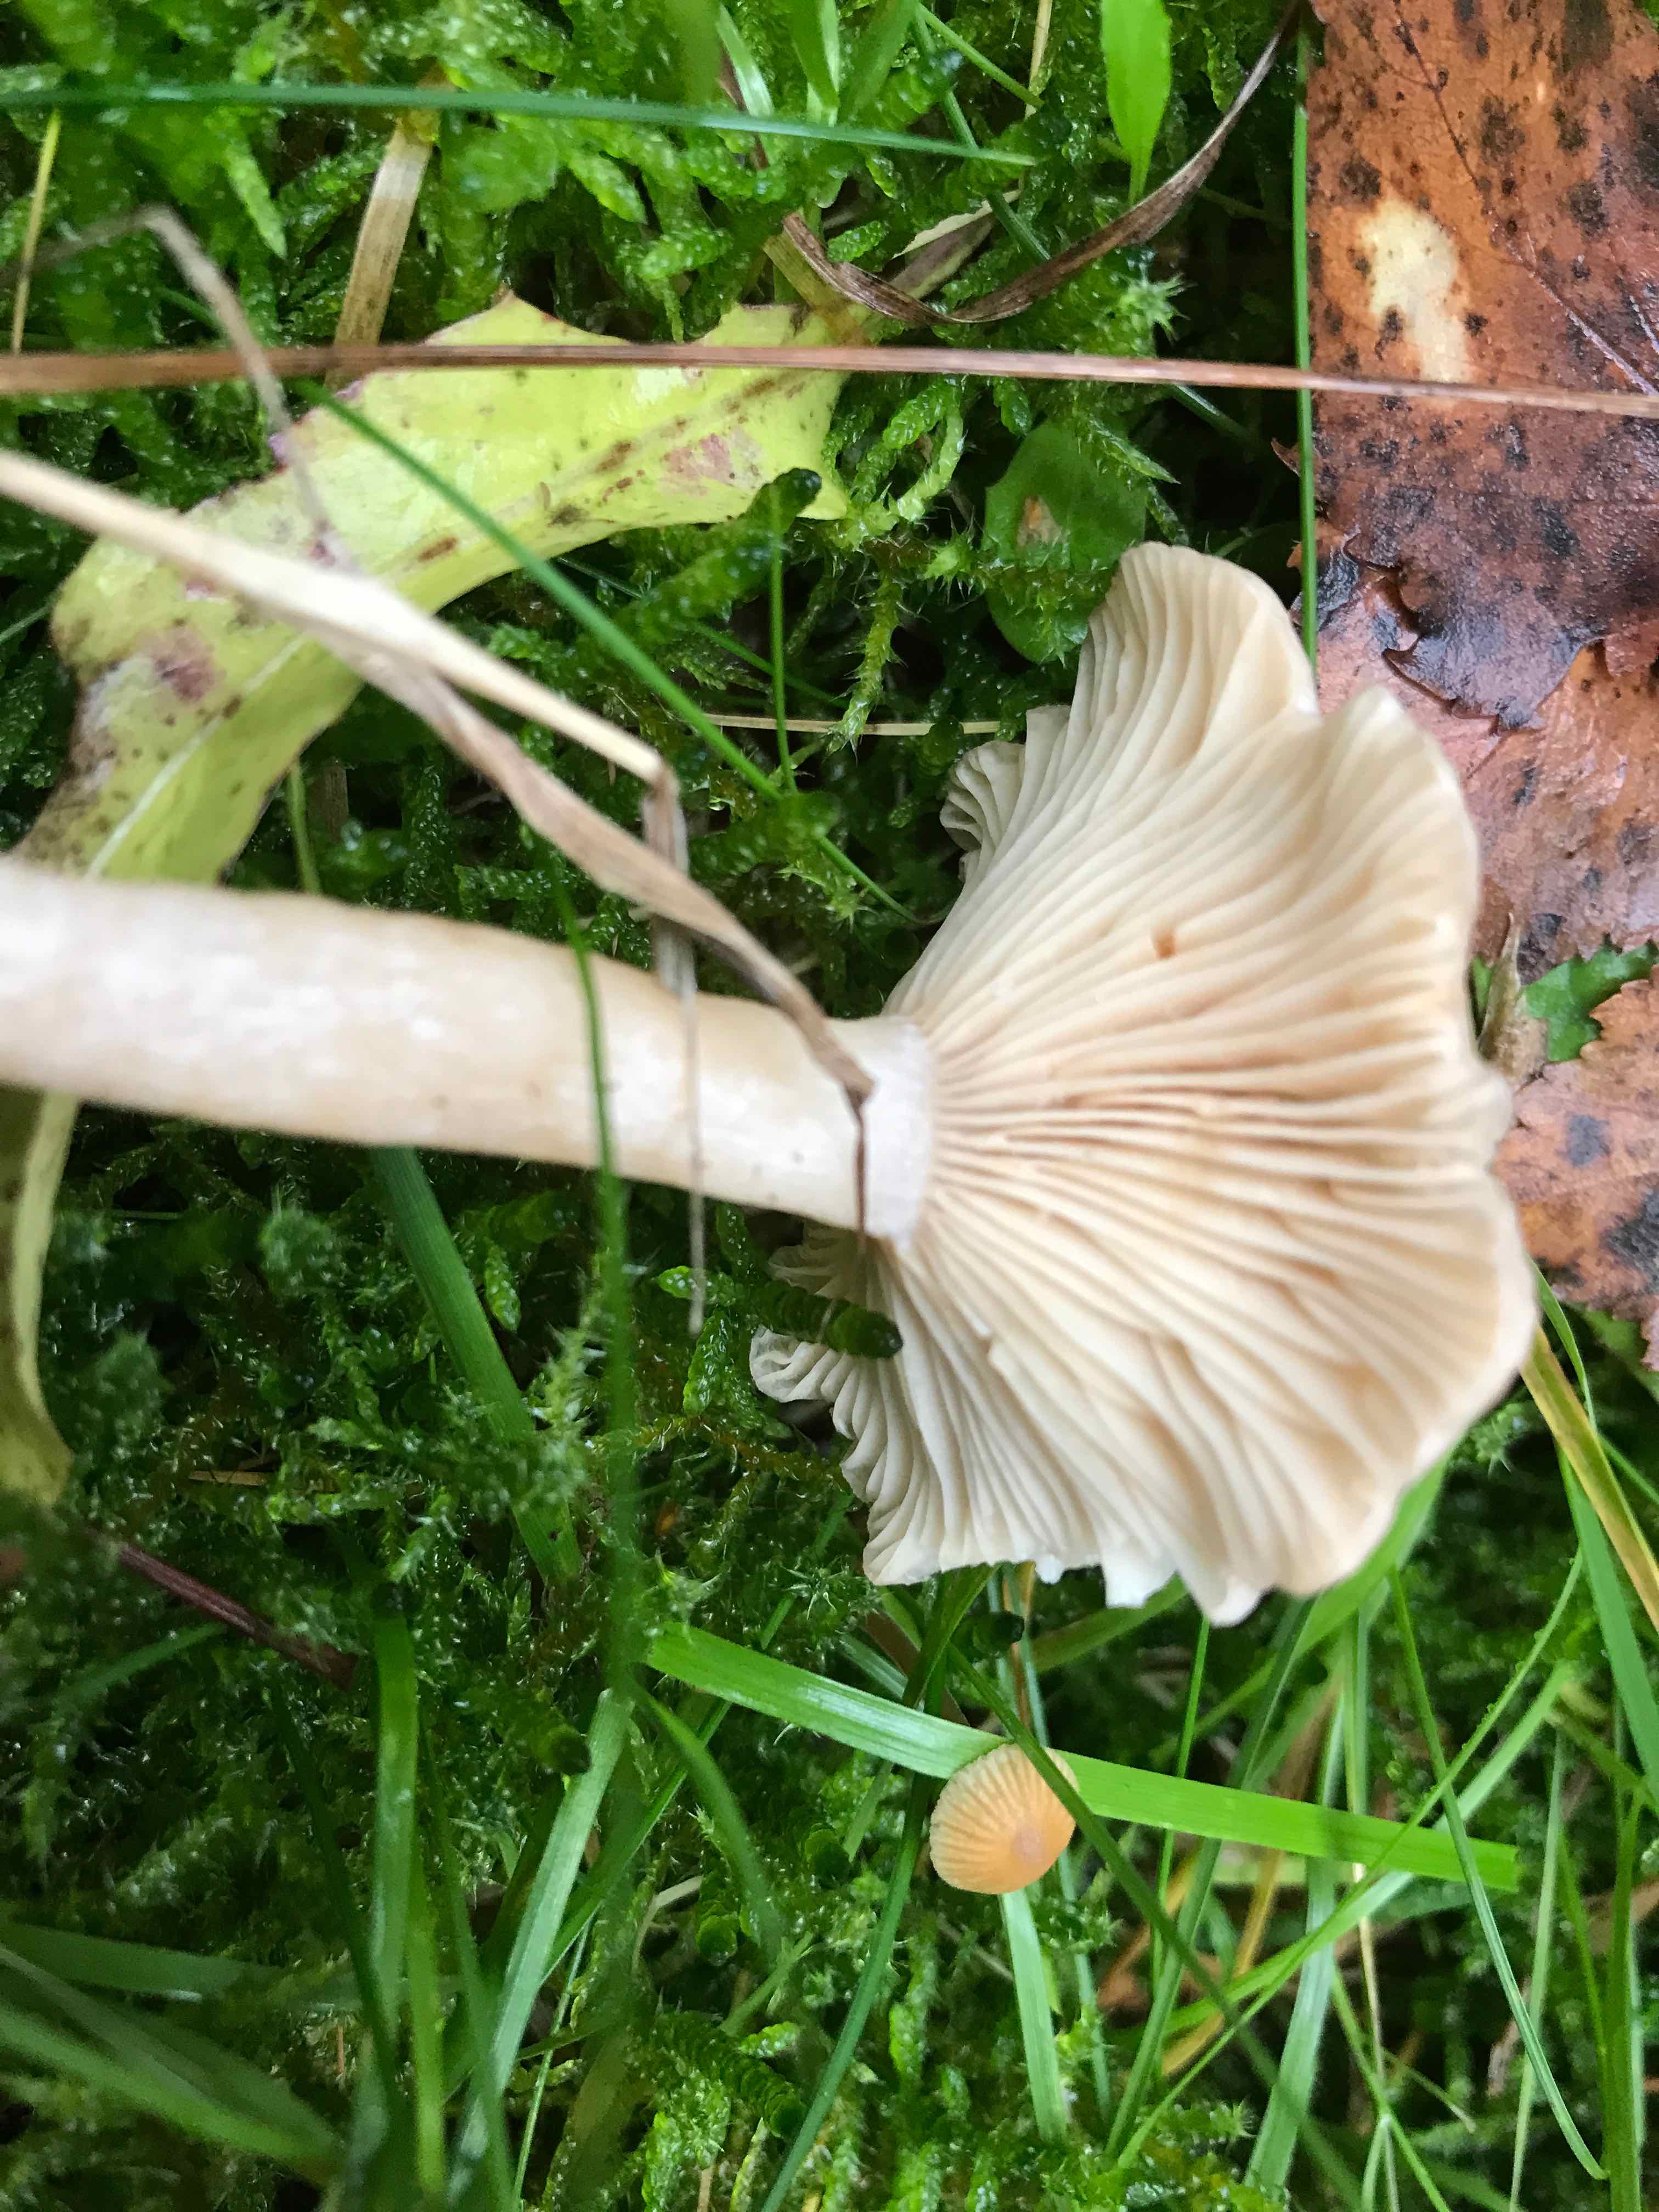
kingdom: Fungi
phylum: Basidiomycota
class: Agaricomycetes
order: Russulales
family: Russulaceae
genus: Lactarius
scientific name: Lactarius glyciosmus
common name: kokos-mælkehat
